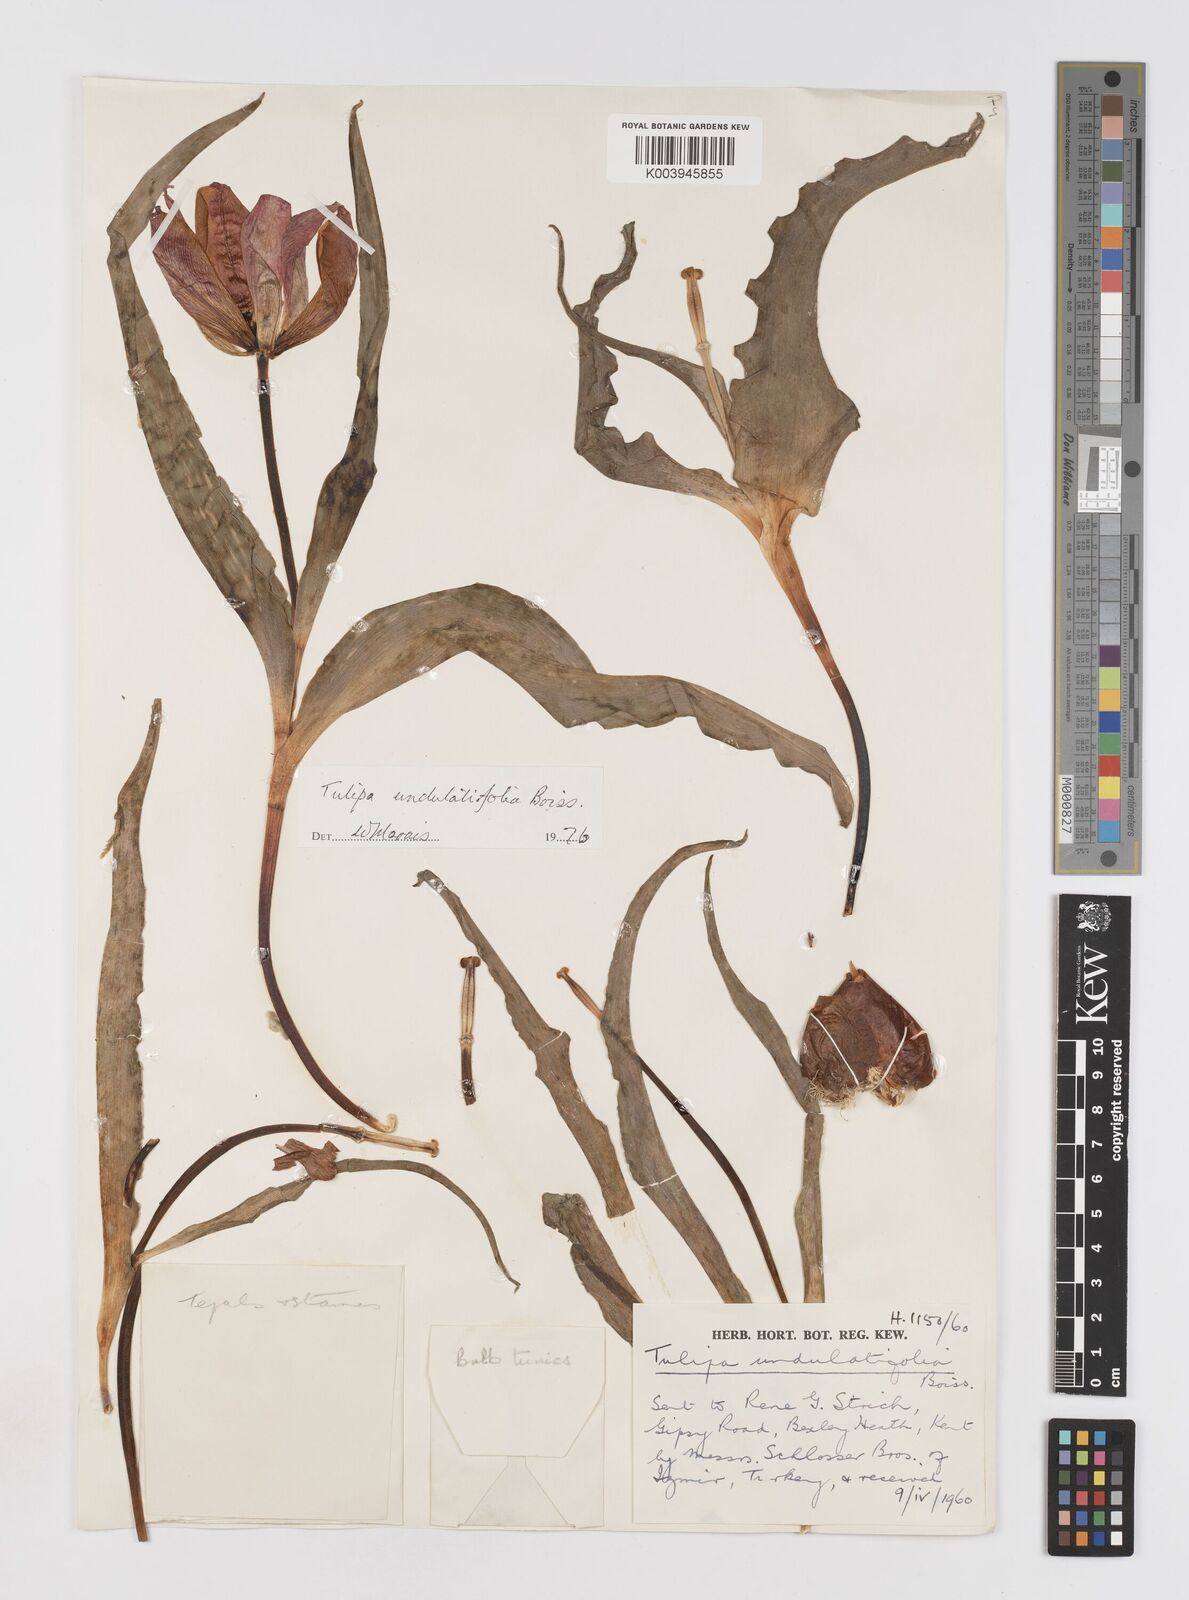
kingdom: Plantae
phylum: Tracheophyta
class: Liliopsida
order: Liliales
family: Liliaceae
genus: Tulipa
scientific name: Tulipa undulatifolia
